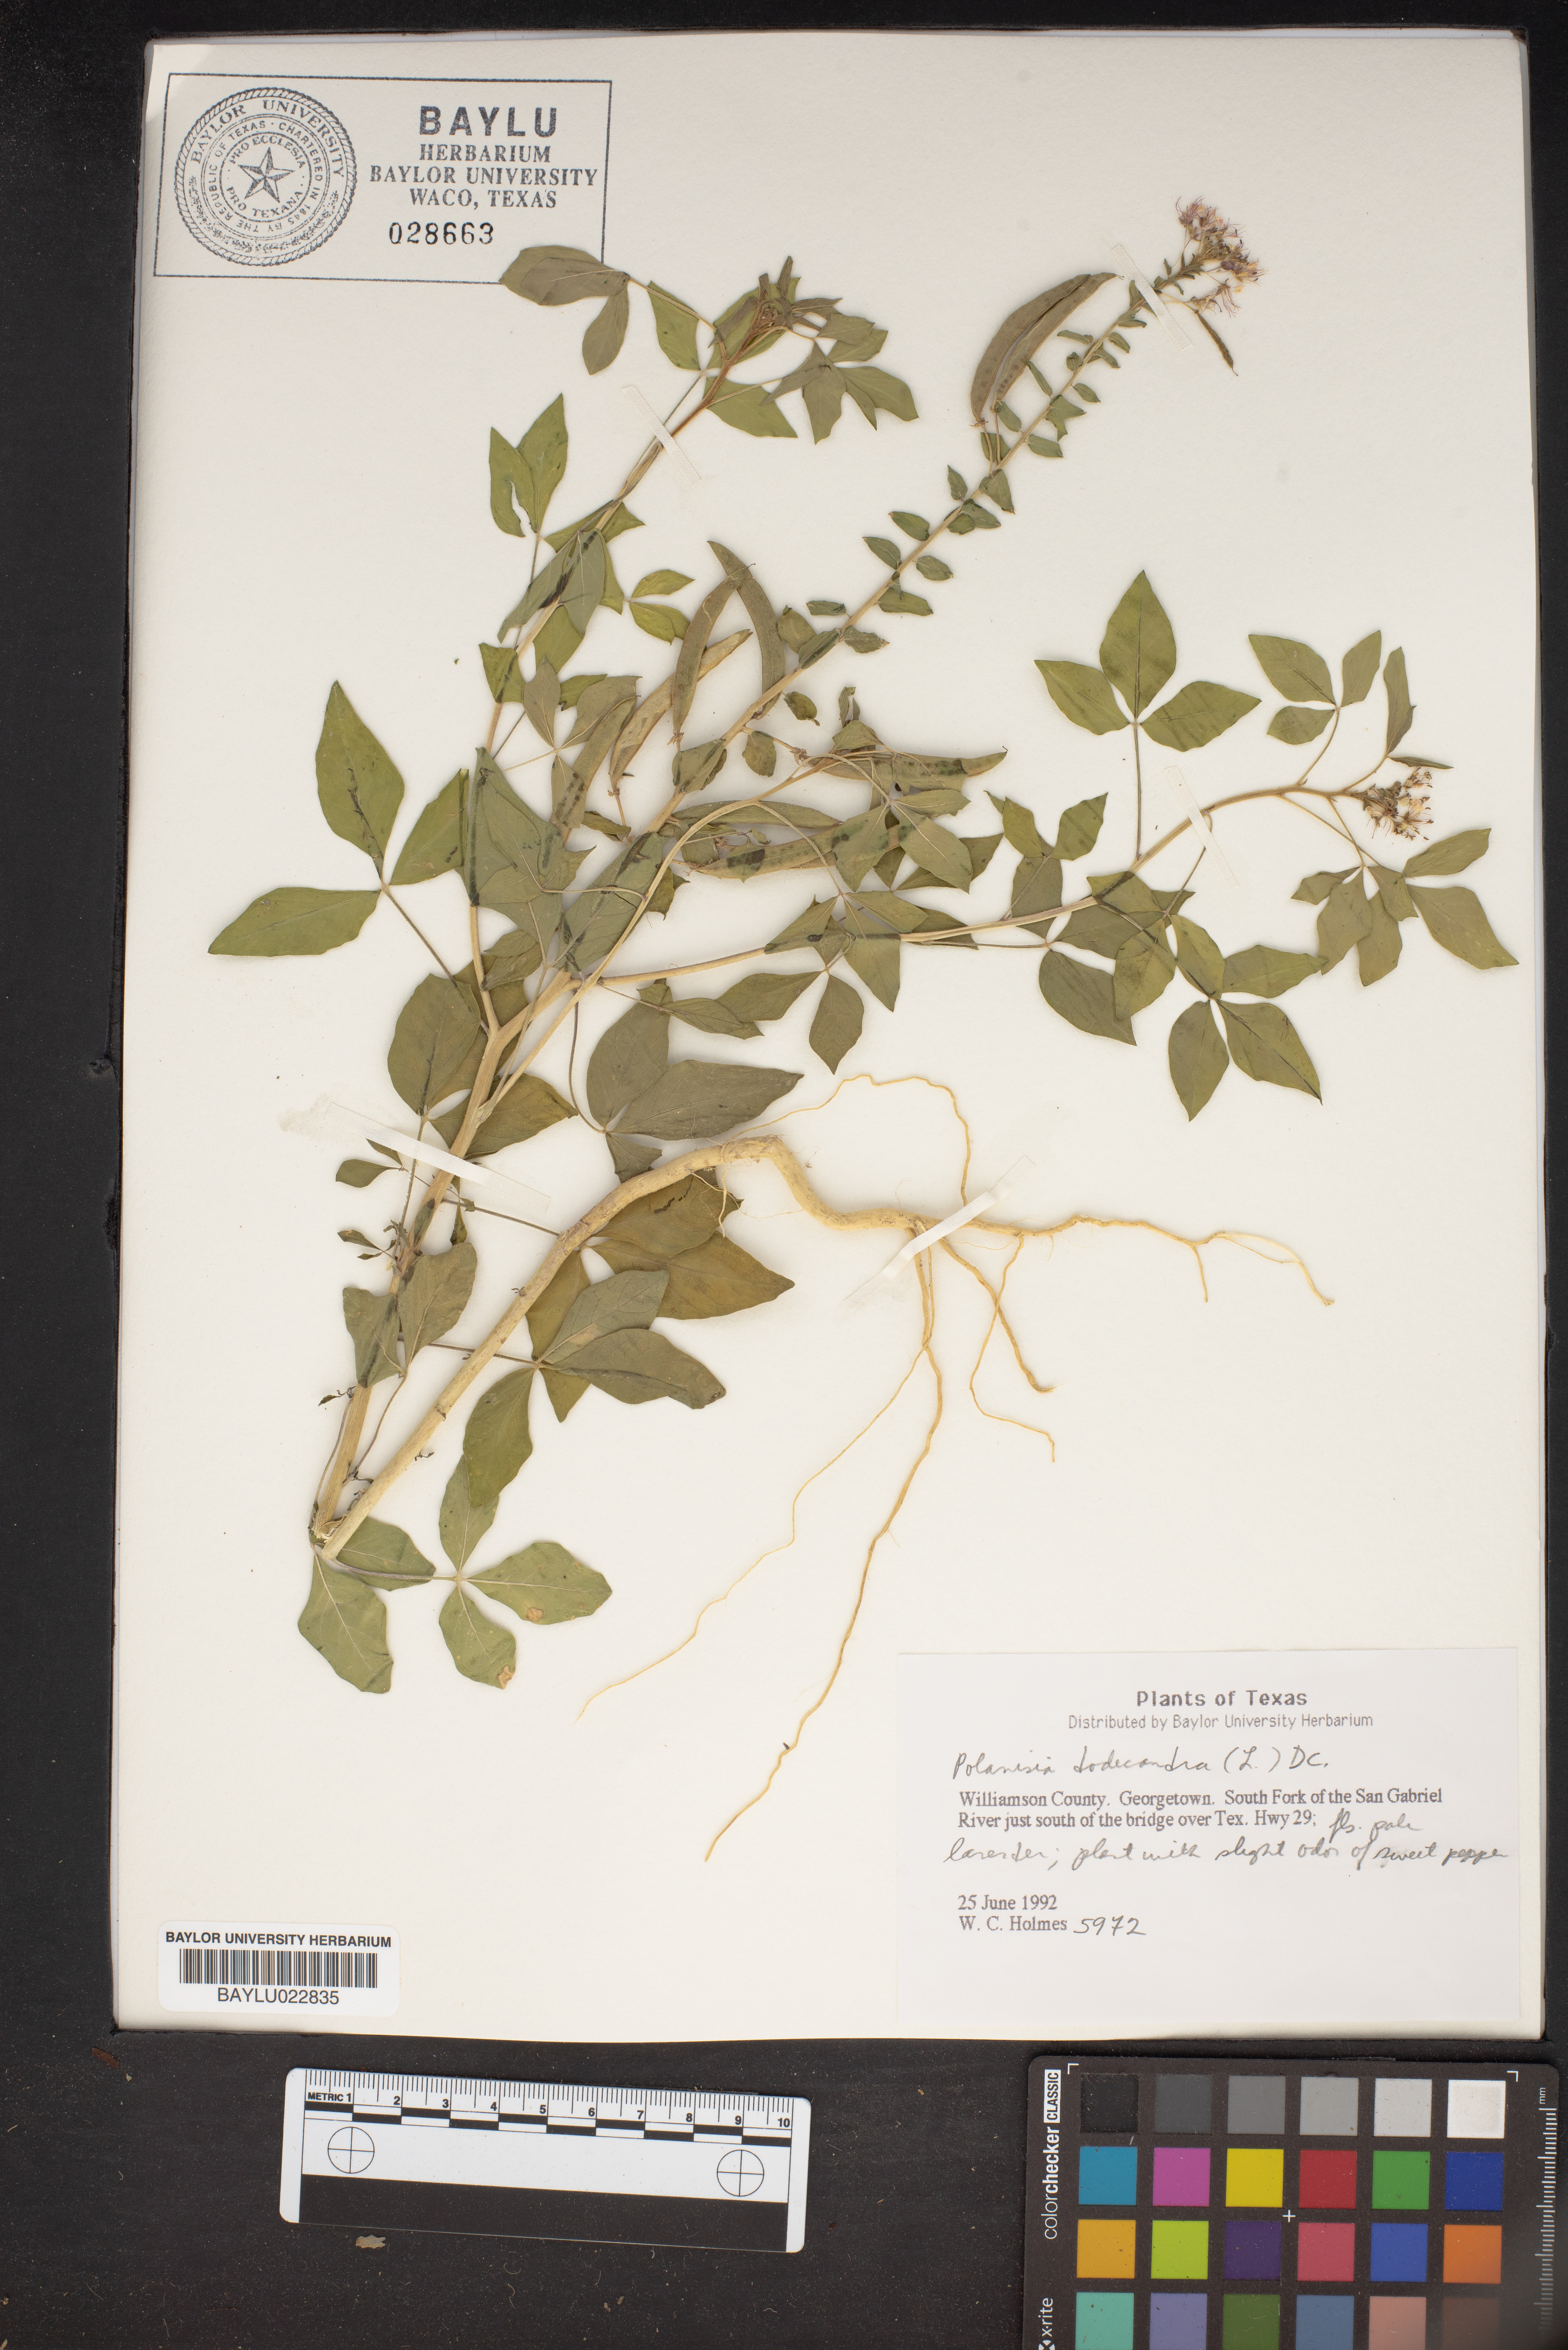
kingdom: Plantae
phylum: Tracheophyta
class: Magnoliopsida
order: Brassicales
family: Cleomaceae
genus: Polanisia
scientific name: Polanisia dodecandra
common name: Clammyweed
